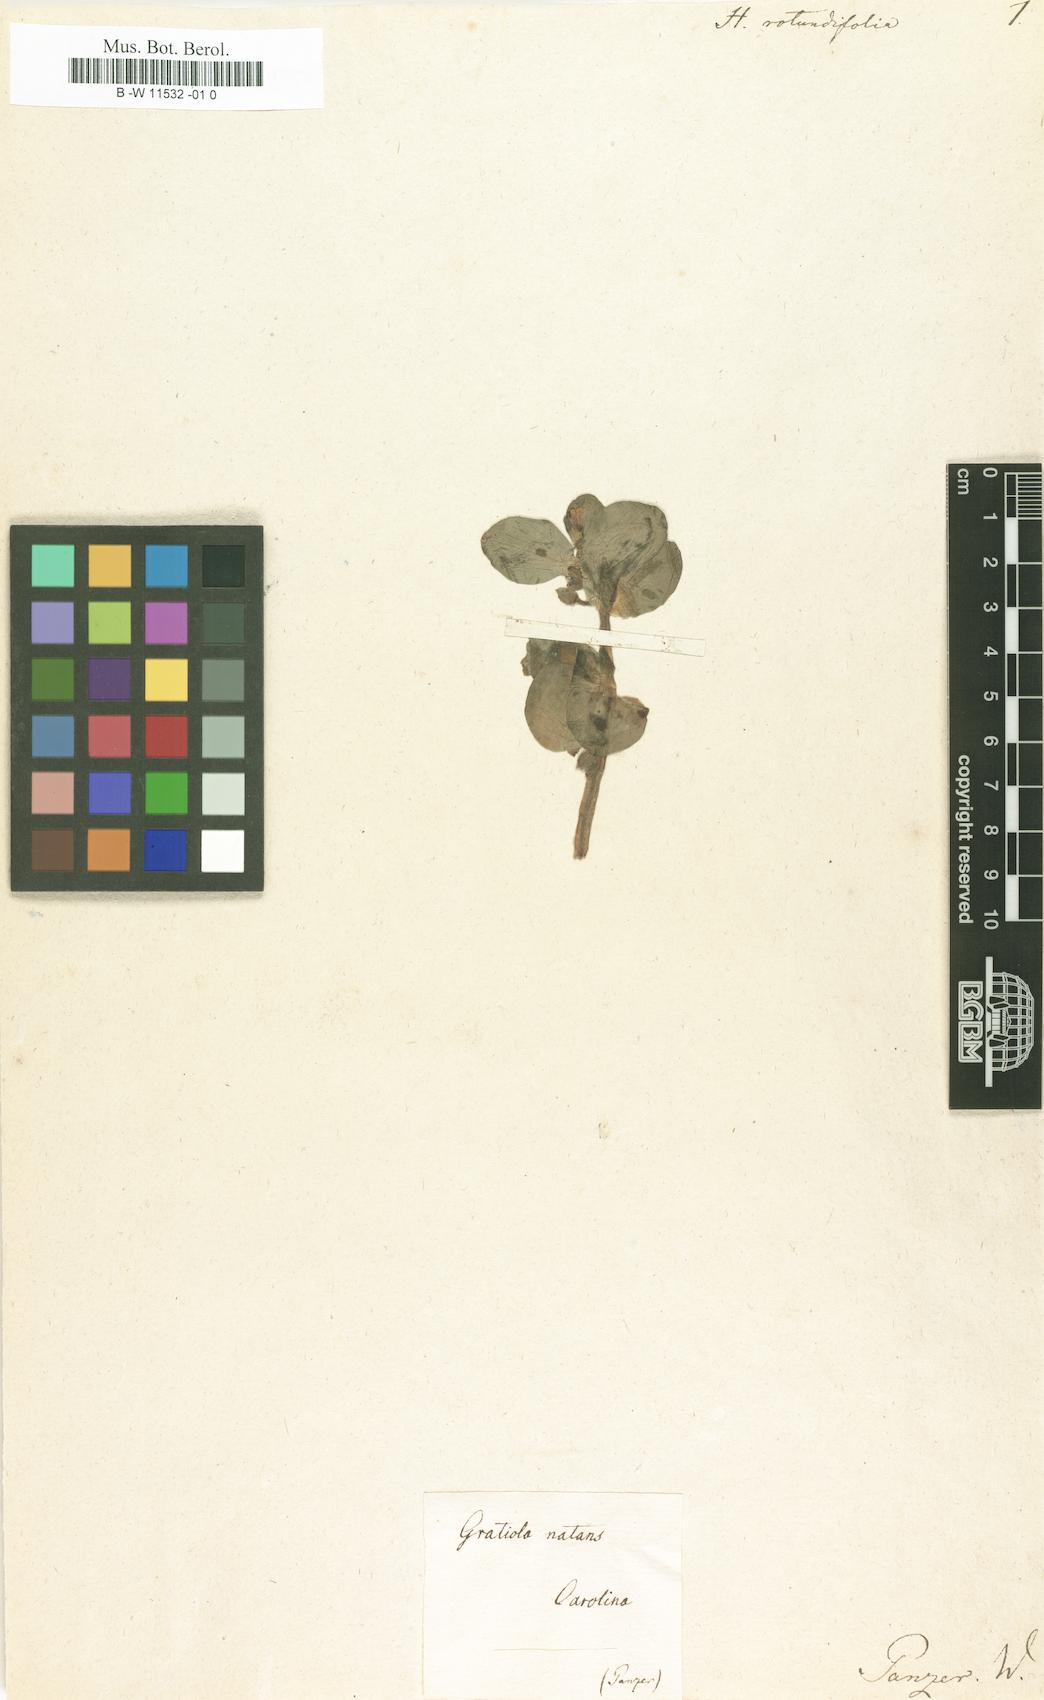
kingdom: Plantae
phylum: Tracheophyta
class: Magnoliopsida
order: Lamiales
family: Scrophulariaceae
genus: Herpestes
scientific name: Herpestes
